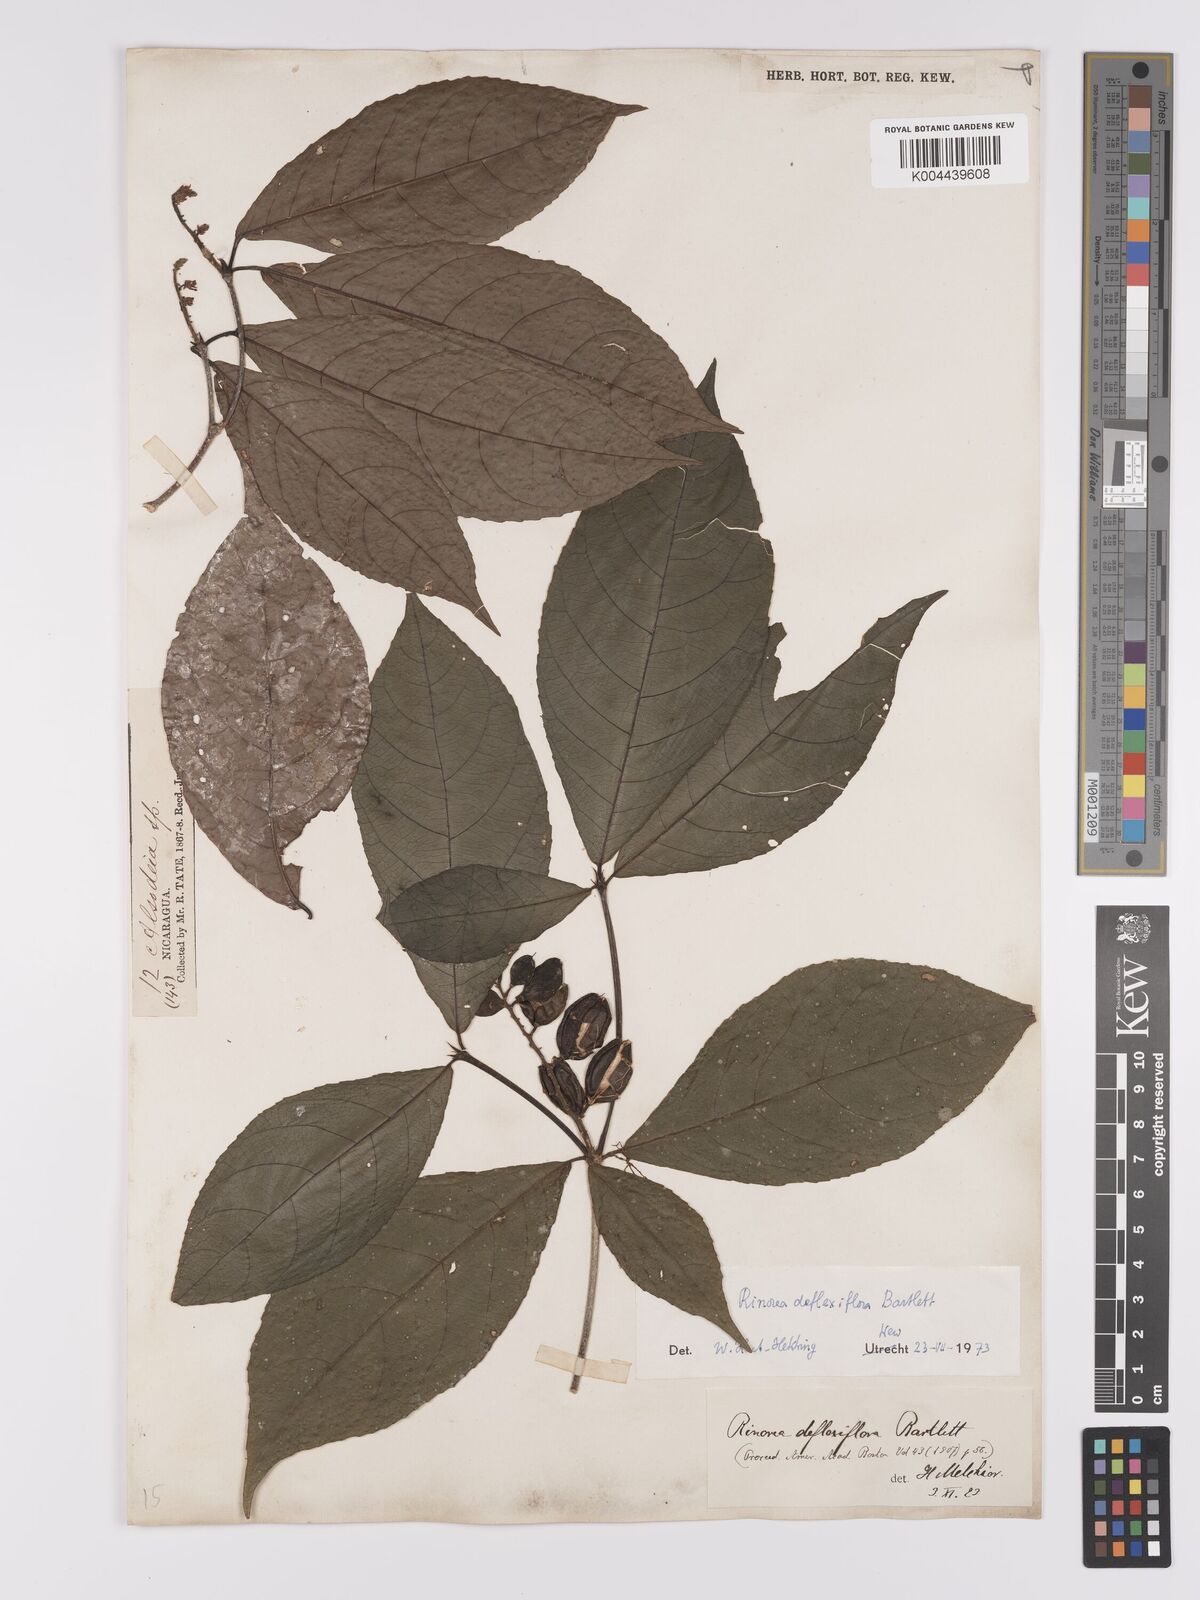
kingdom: Plantae
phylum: Tracheophyta
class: Magnoliopsida
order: Malpighiales
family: Violaceae
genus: Rinorea
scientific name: Rinorea deflexiflora
